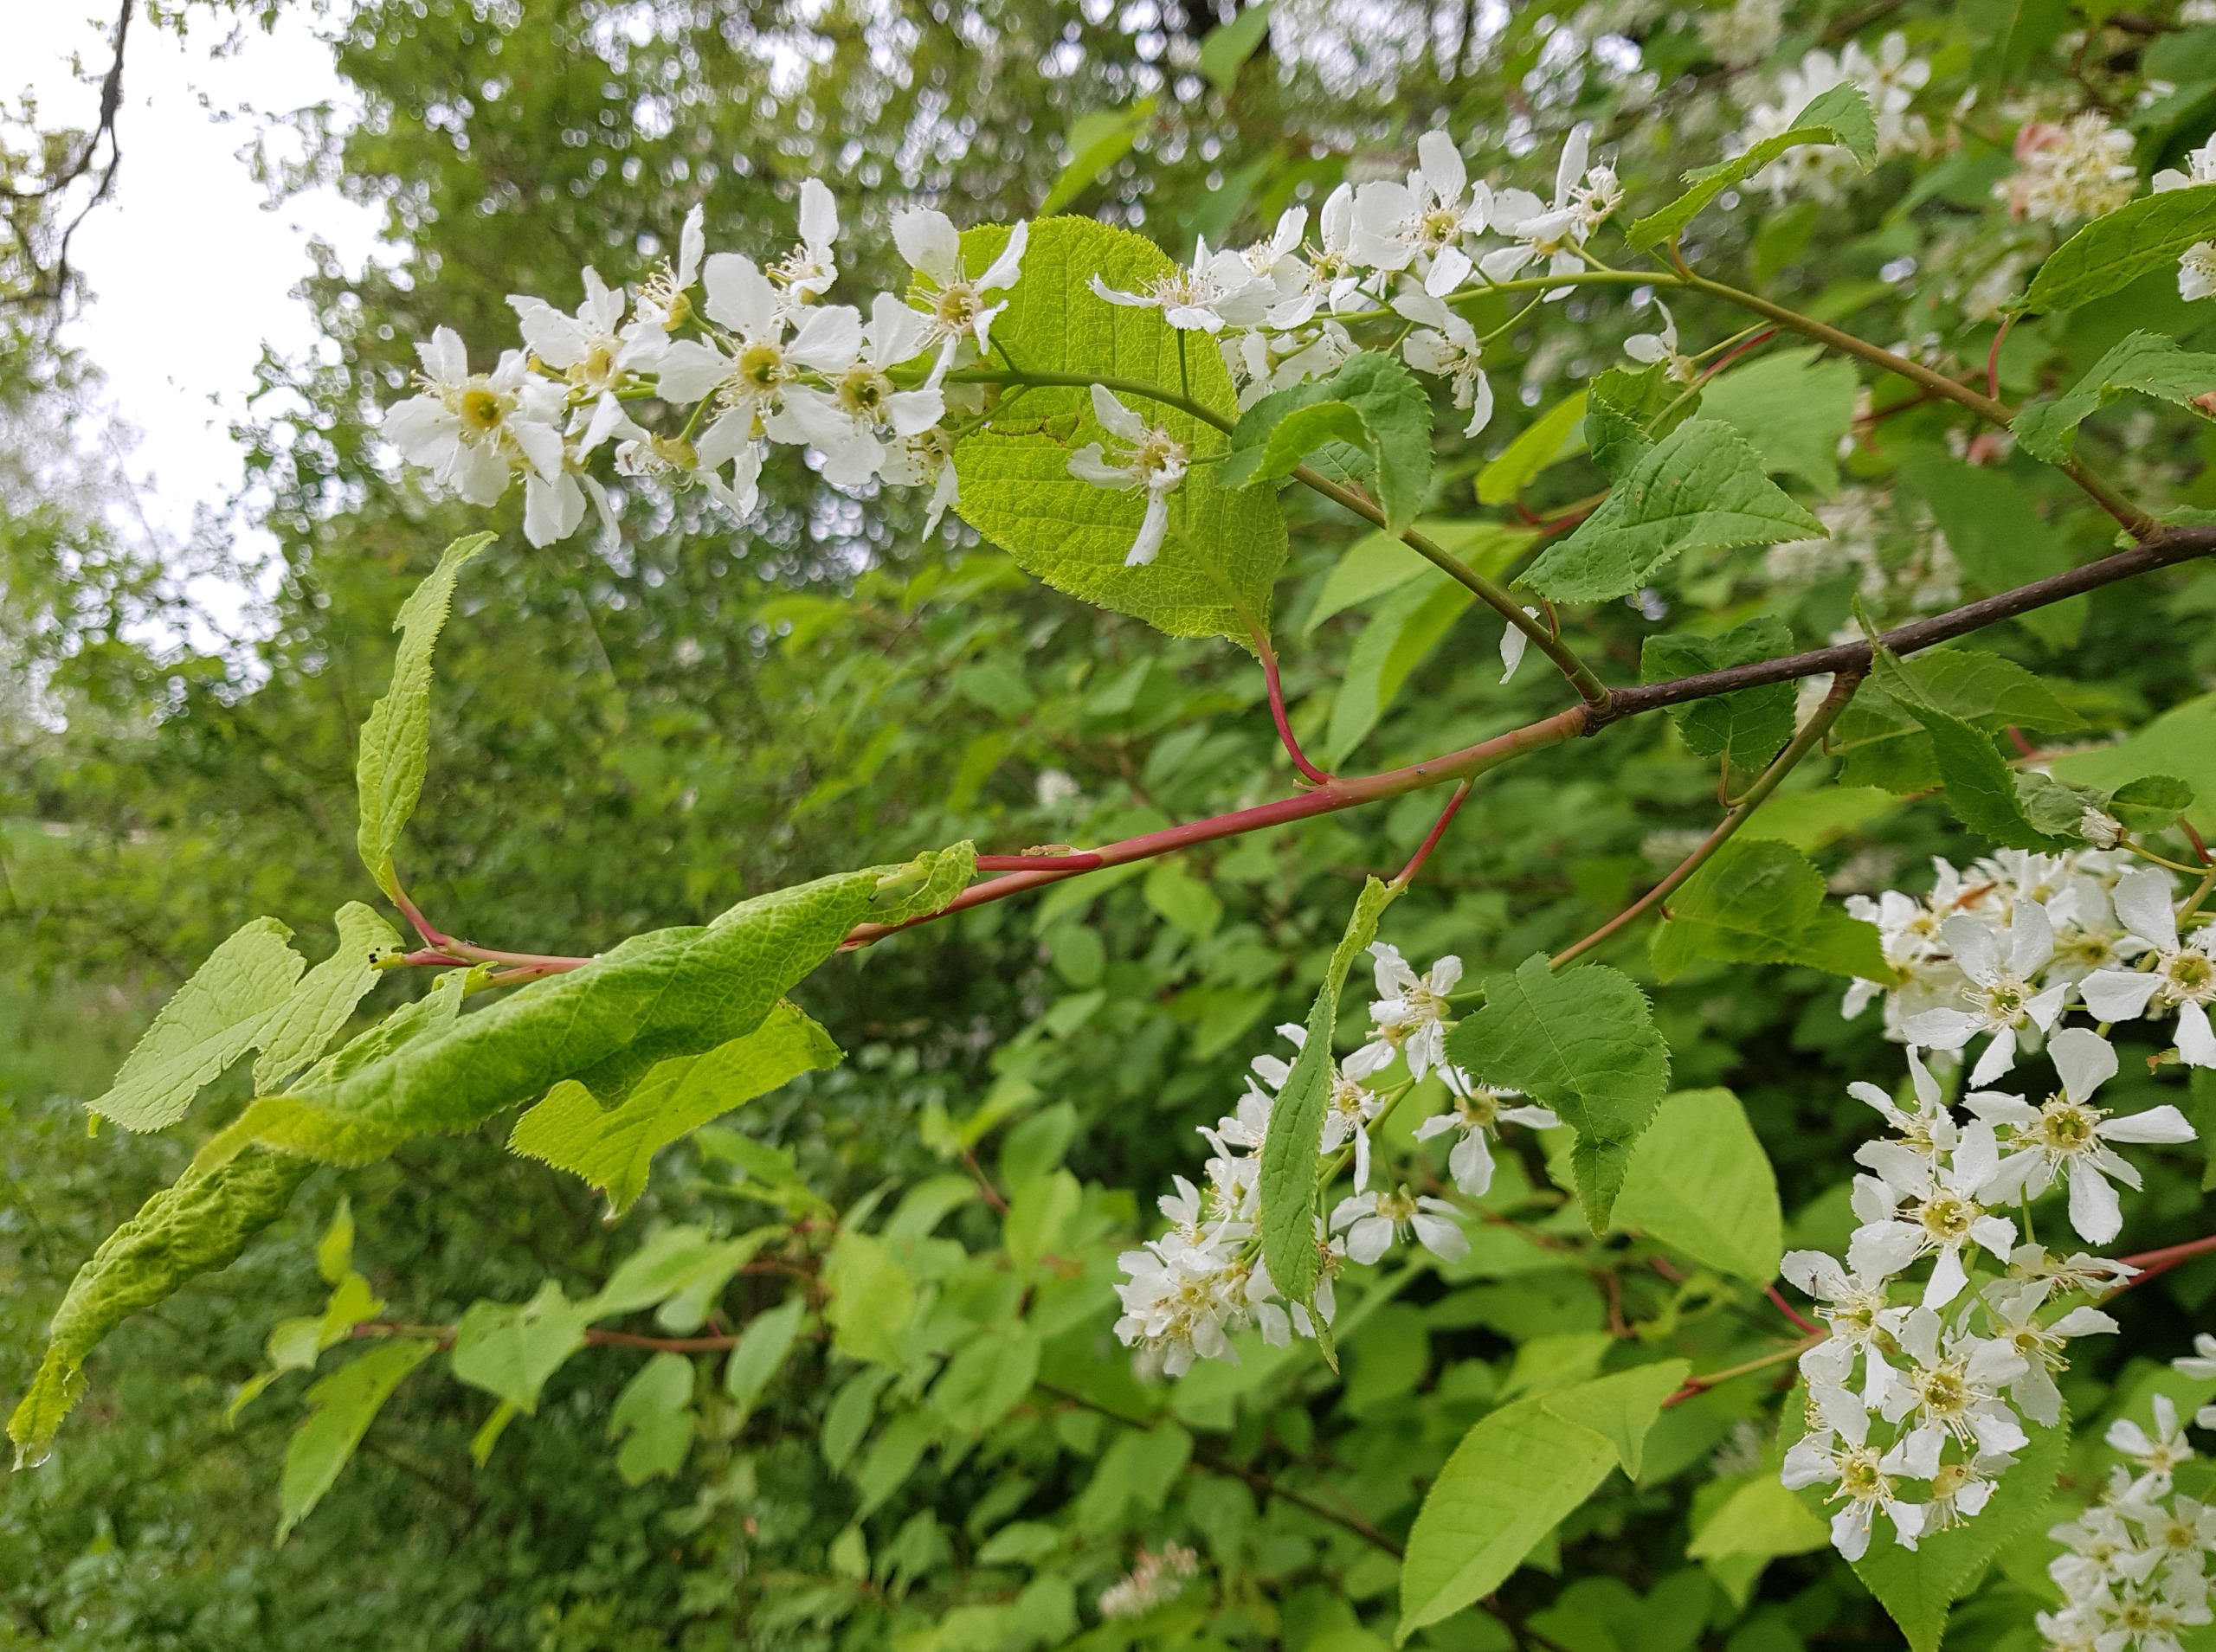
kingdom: Plantae
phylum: Tracheophyta
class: Magnoliopsida
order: Rosales
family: Rosaceae
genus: Prunus
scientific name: Prunus padus
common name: Almindelig hæg
